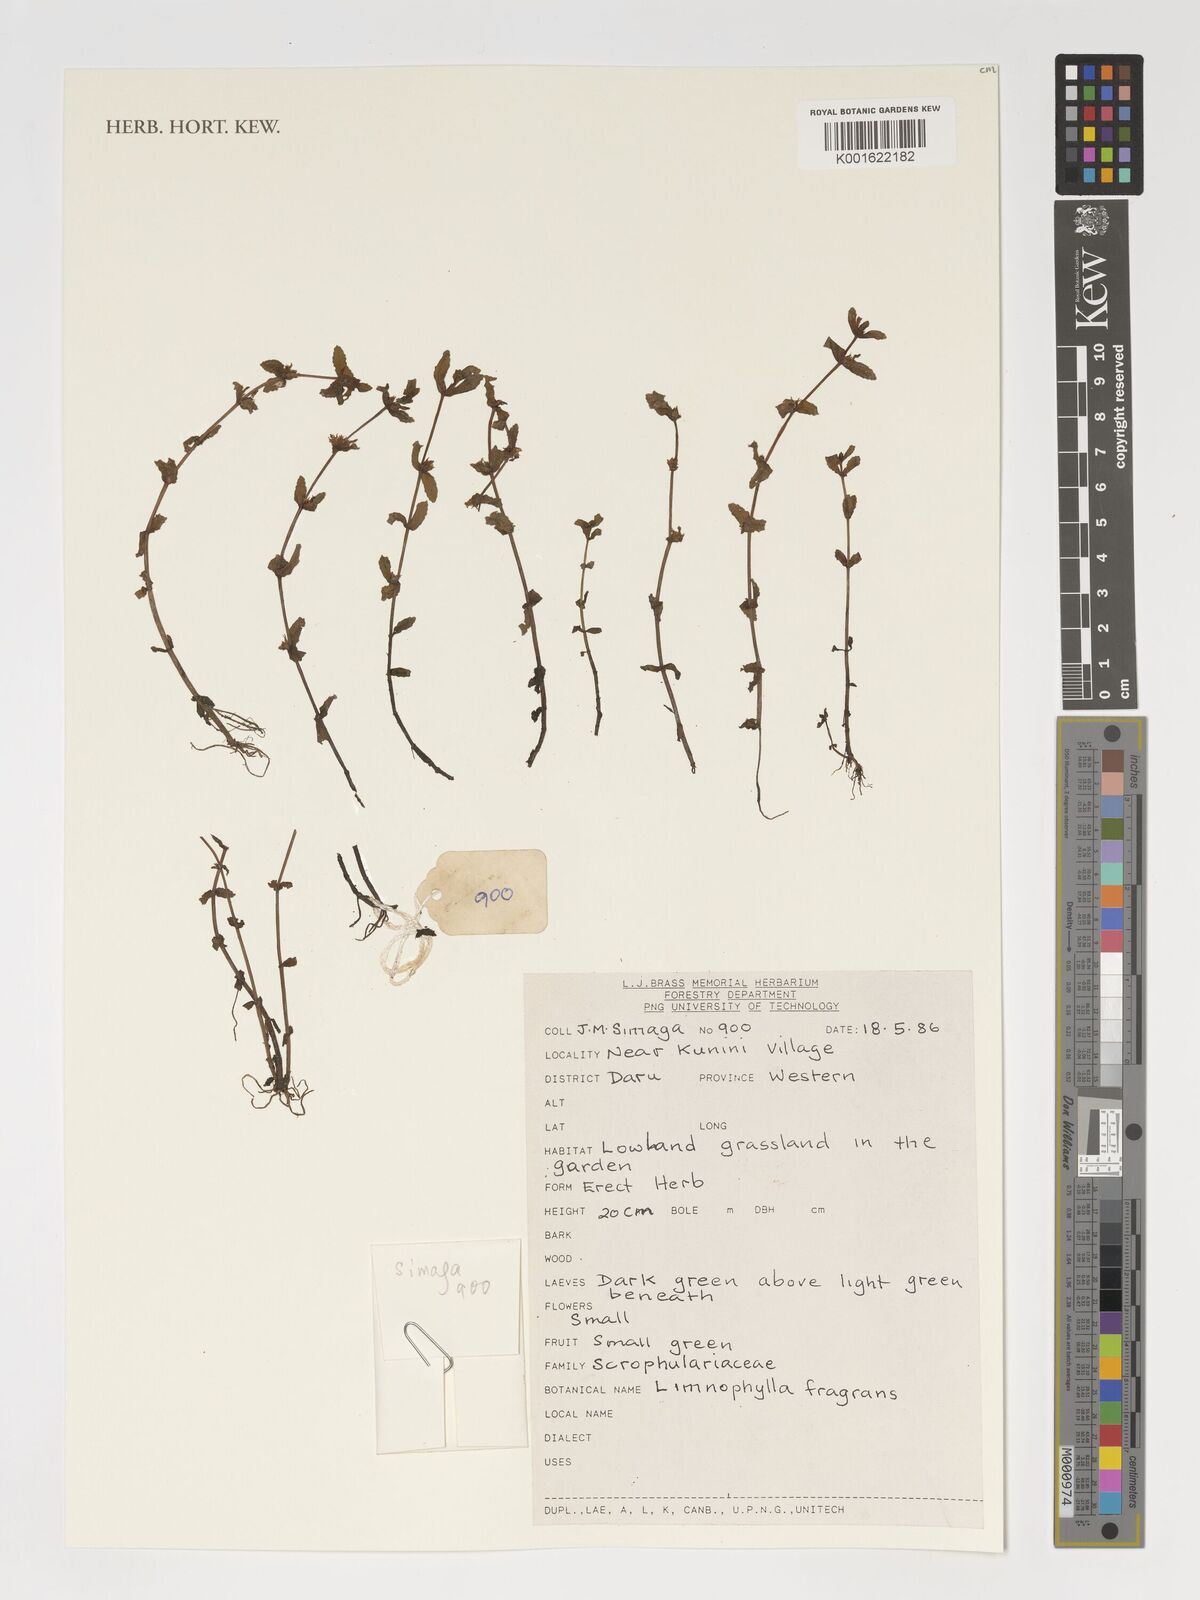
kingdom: Plantae
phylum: Tracheophyta
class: Magnoliopsida
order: Lamiales
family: Scrophulariaceae
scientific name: Scrophulariaceae
